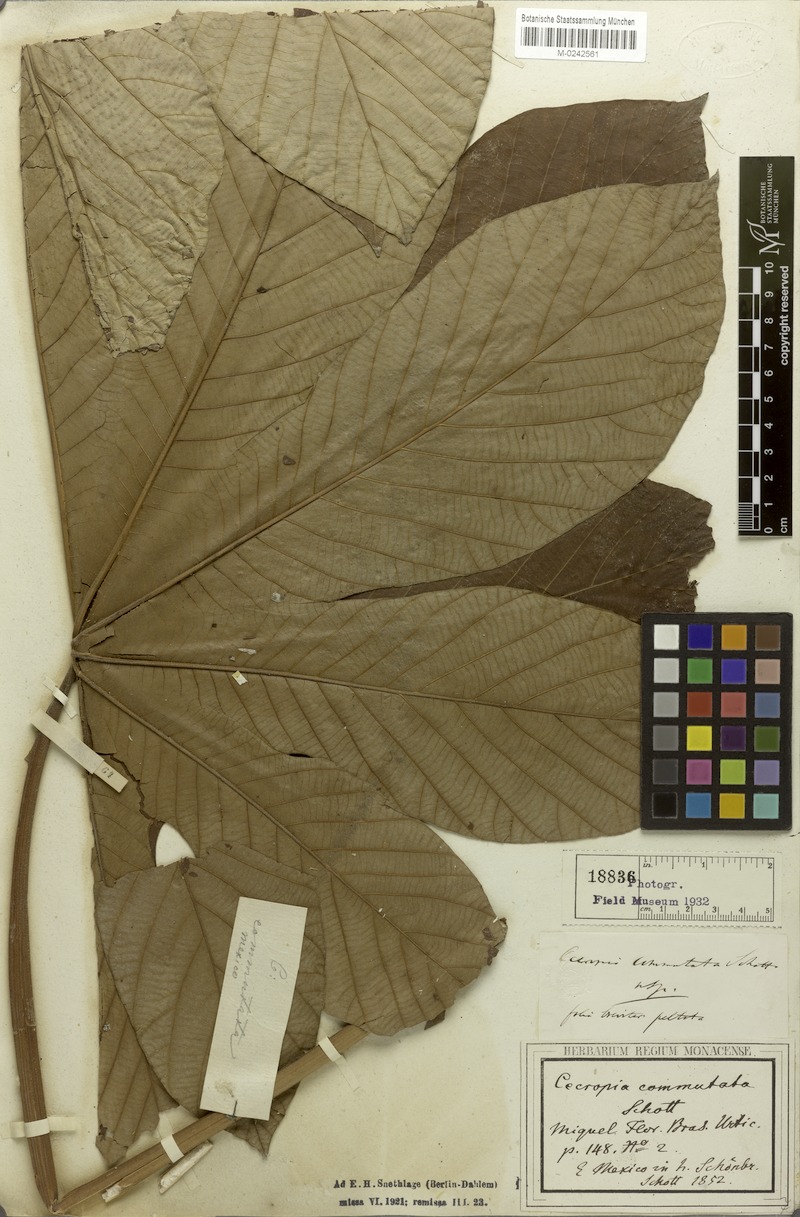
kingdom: Plantae
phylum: Tracheophyta
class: Magnoliopsida
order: Rosales
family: Urticaceae
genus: Cecropia
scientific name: Cecropia obtusifolia
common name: Trumpet tree
